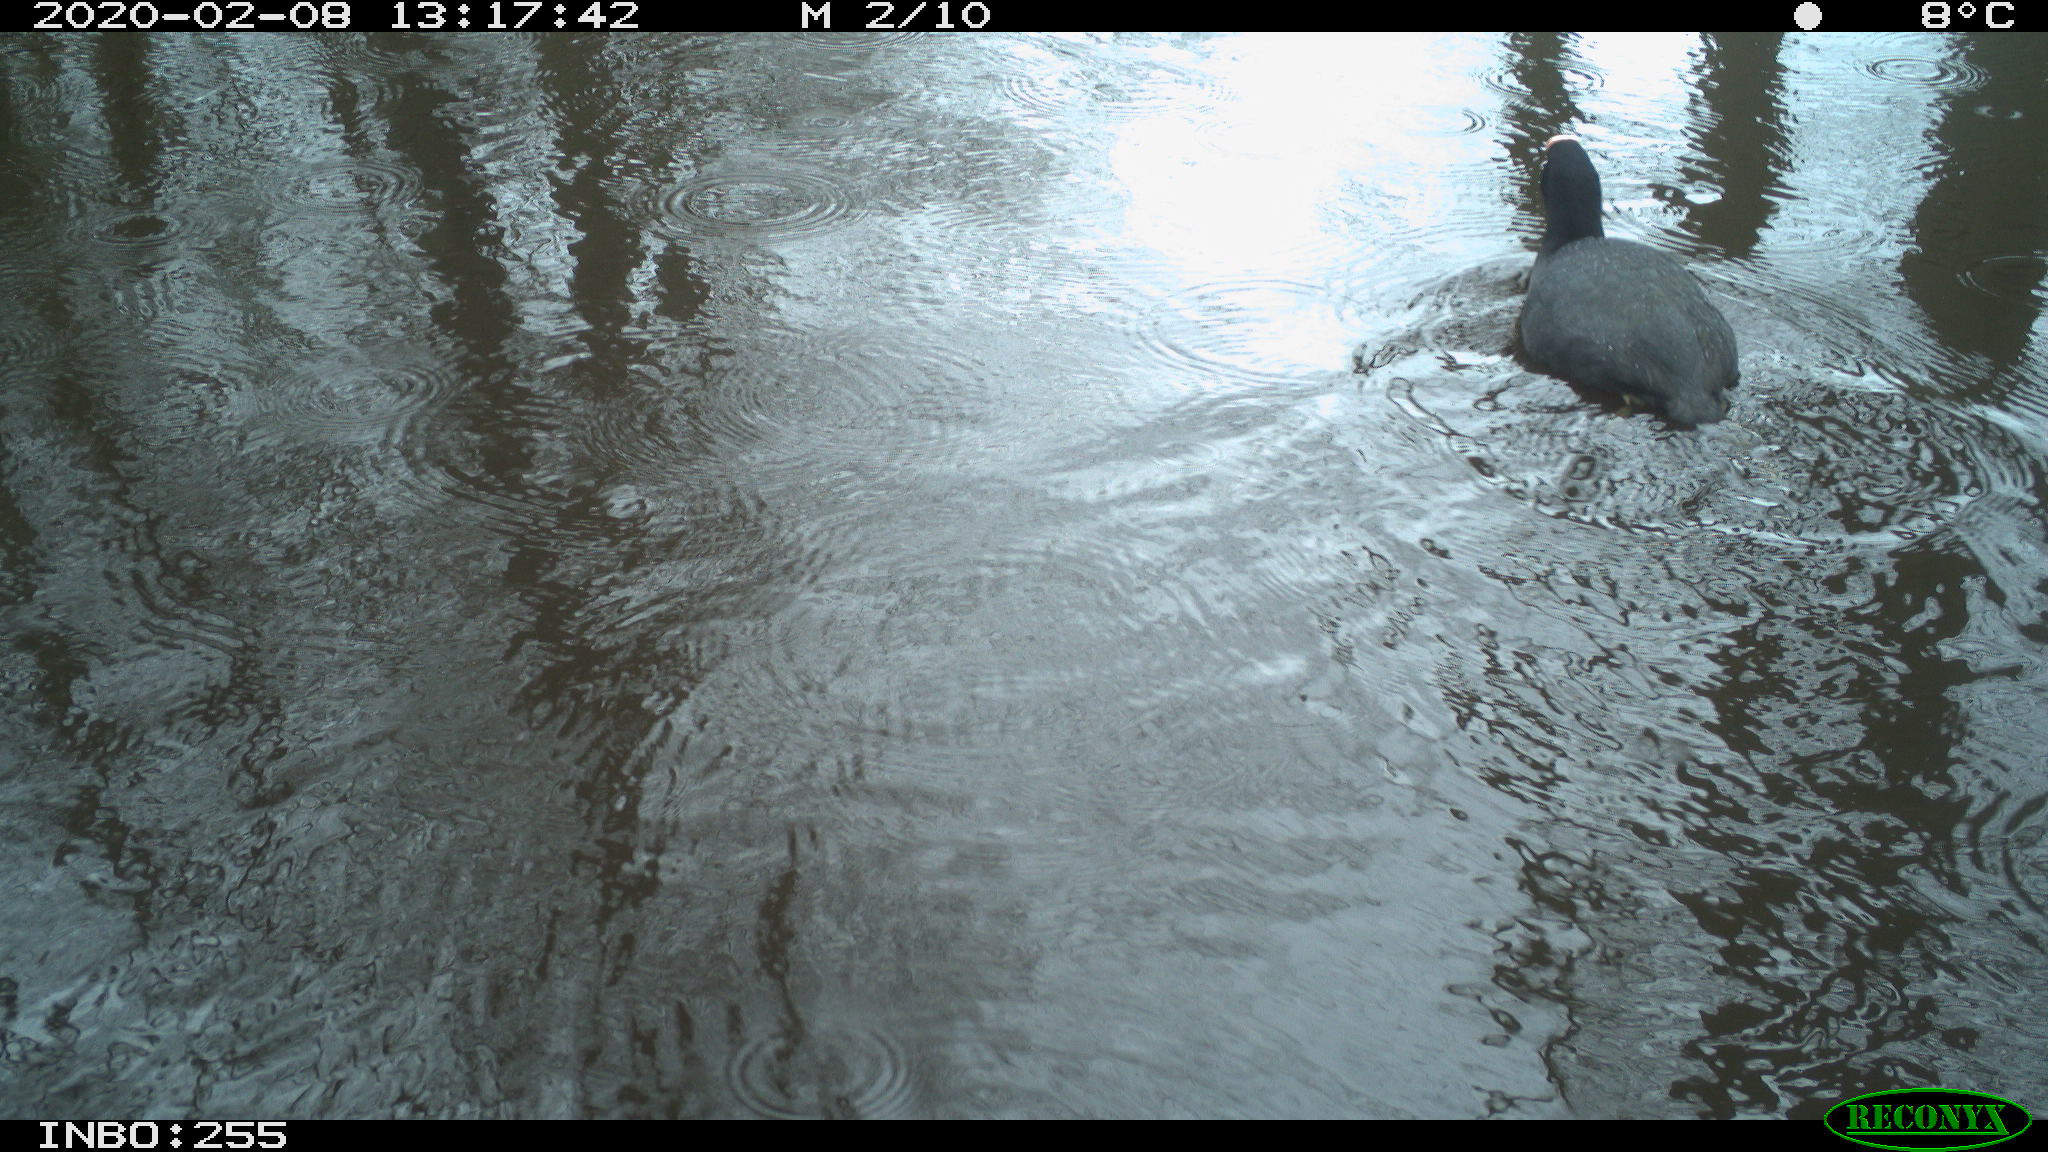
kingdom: Animalia
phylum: Chordata
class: Aves
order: Gruiformes
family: Rallidae
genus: Fulica
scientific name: Fulica atra
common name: Eurasian coot
